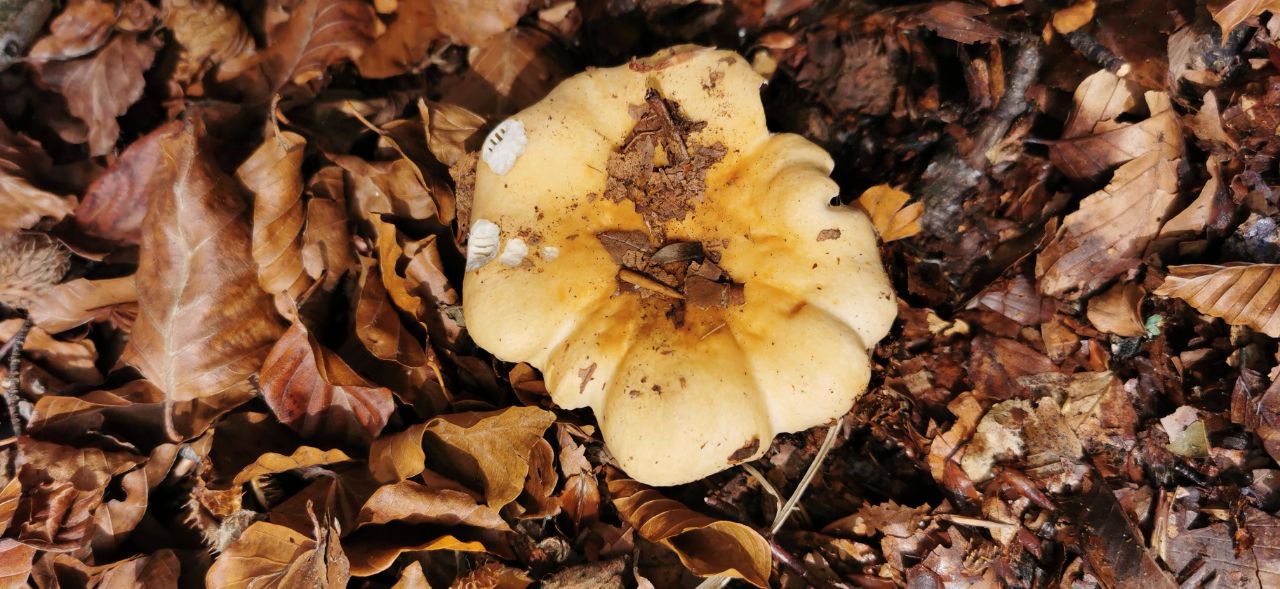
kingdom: Fungi
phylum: Basidiomycota
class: Agaricomycetes
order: Russulales
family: Russulaceae
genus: Russula
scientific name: Russula
